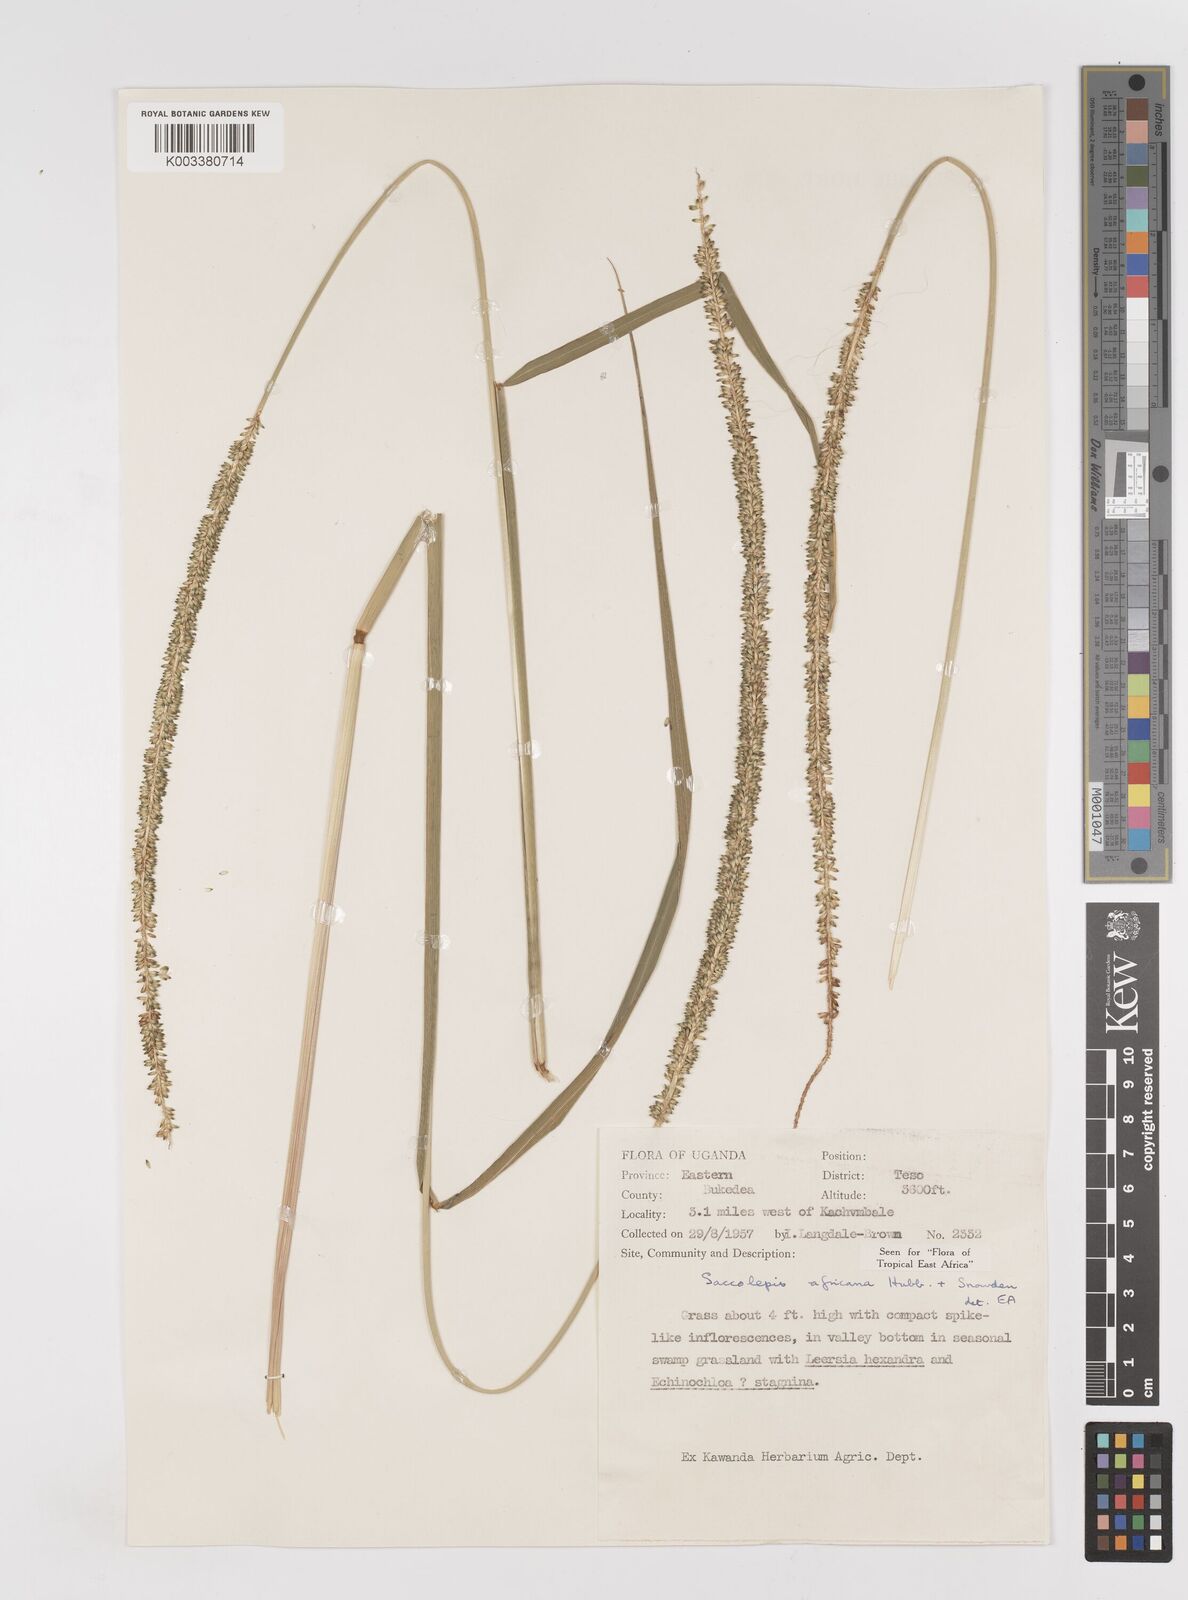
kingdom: Plantae
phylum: Tracheophyta
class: Liliopsida
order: Poales
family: Poaceae
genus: Sacciolepis
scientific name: Sacciolepis africana
